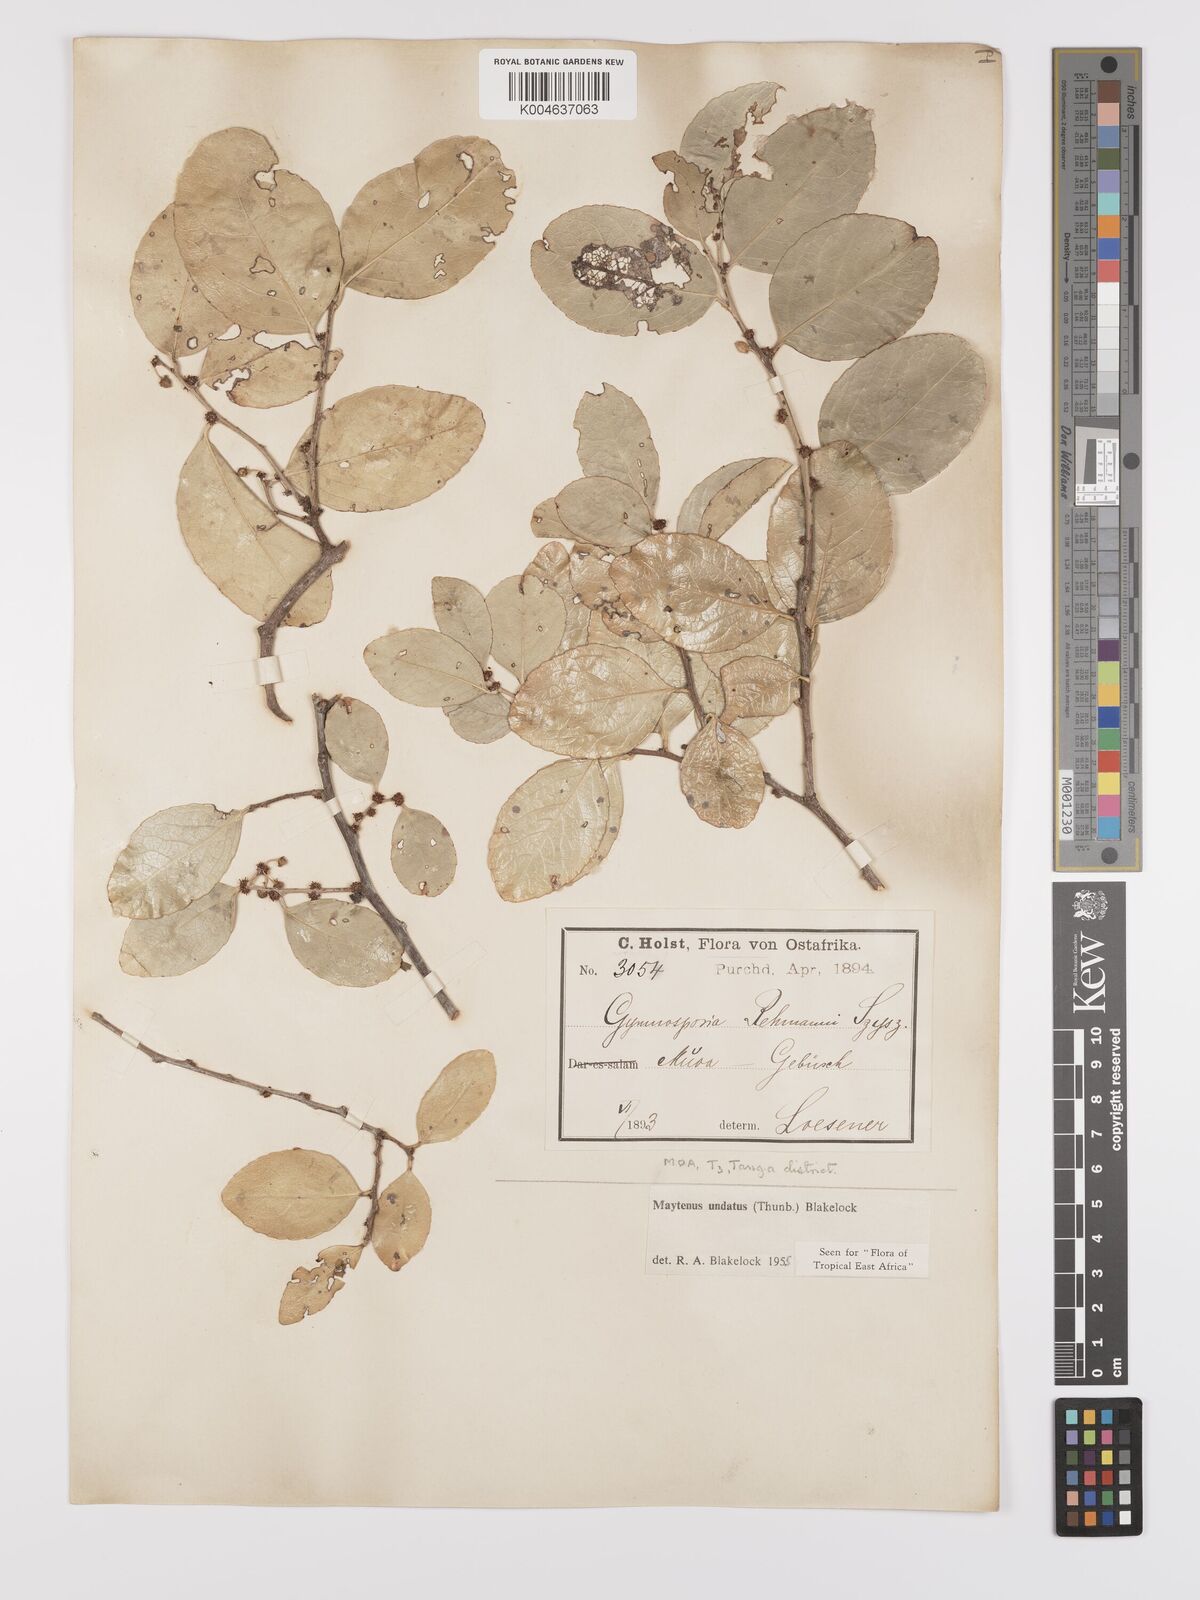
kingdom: Plantae
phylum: Tracheophyta
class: Magnoliopsida
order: Celastrales
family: Celastraceae
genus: Gymnosporia
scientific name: Gymnosporia undata
